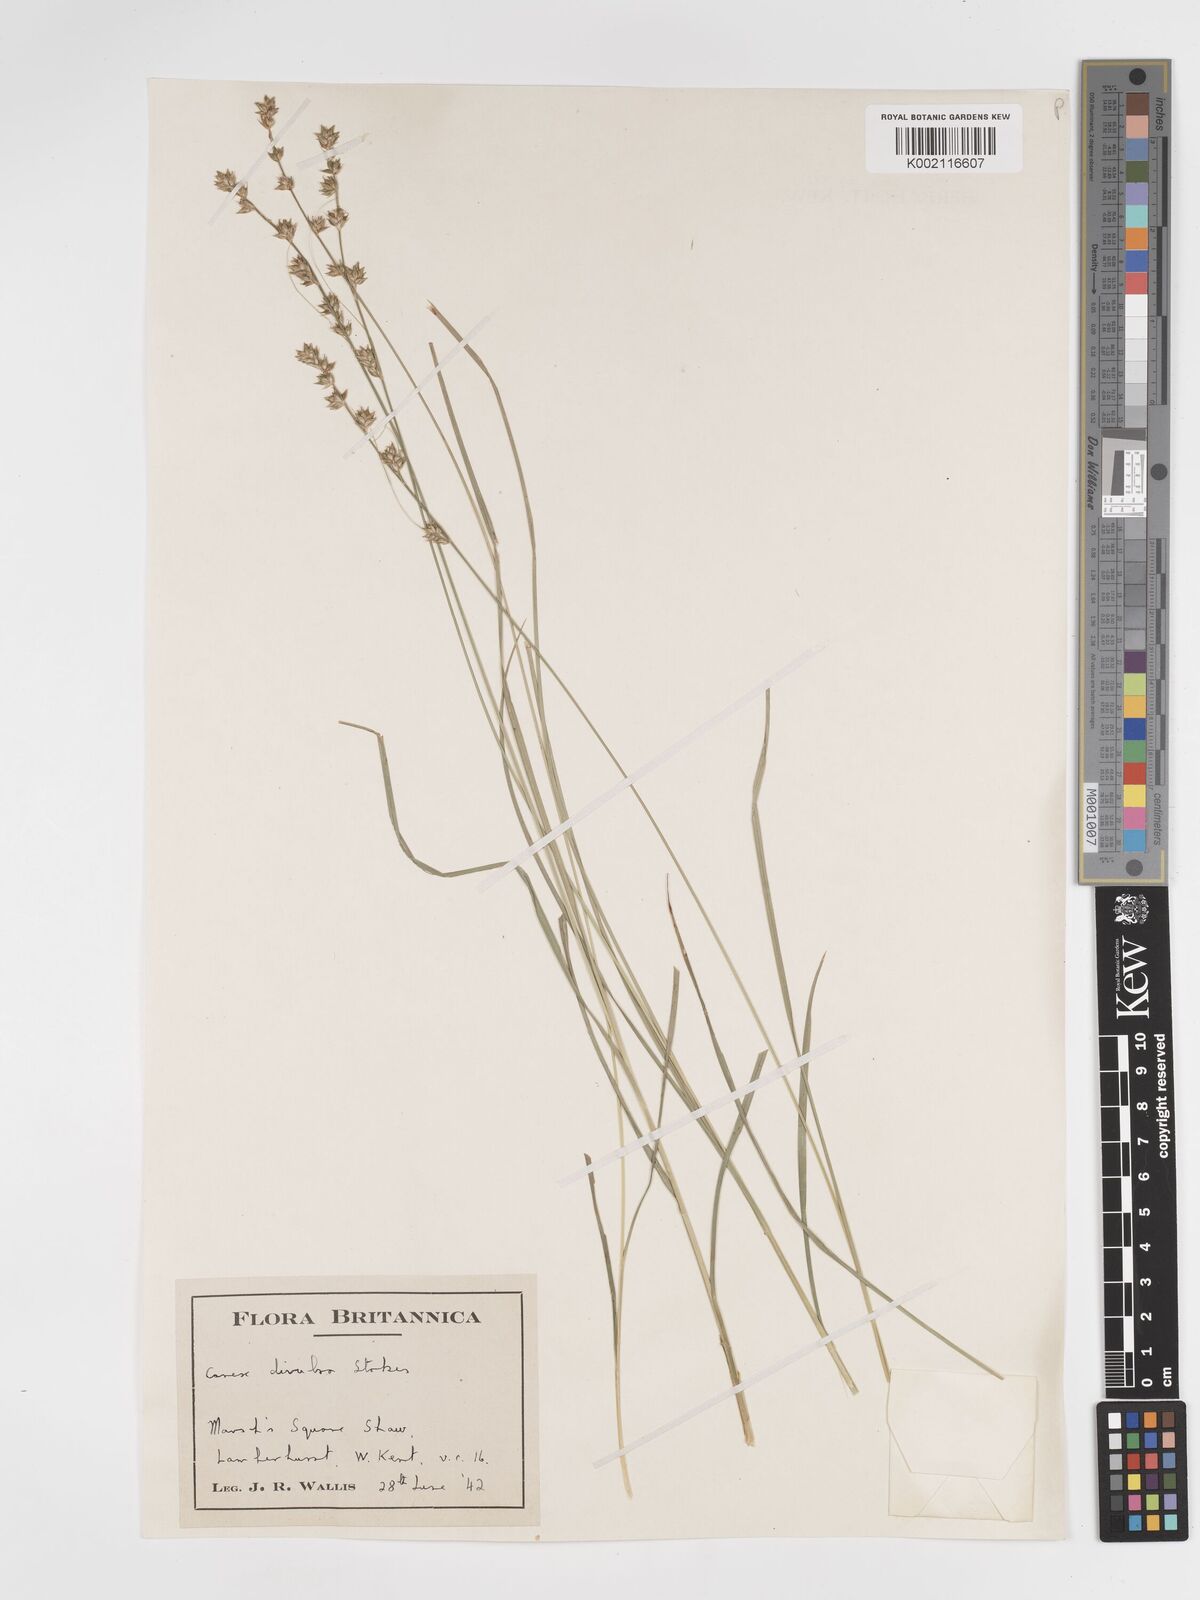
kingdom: Plantae
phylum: Tracheophyta
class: Liliopsida
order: Poales
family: Cyperaceae
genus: Carex
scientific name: Carex divulsa
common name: Grassland sedge
